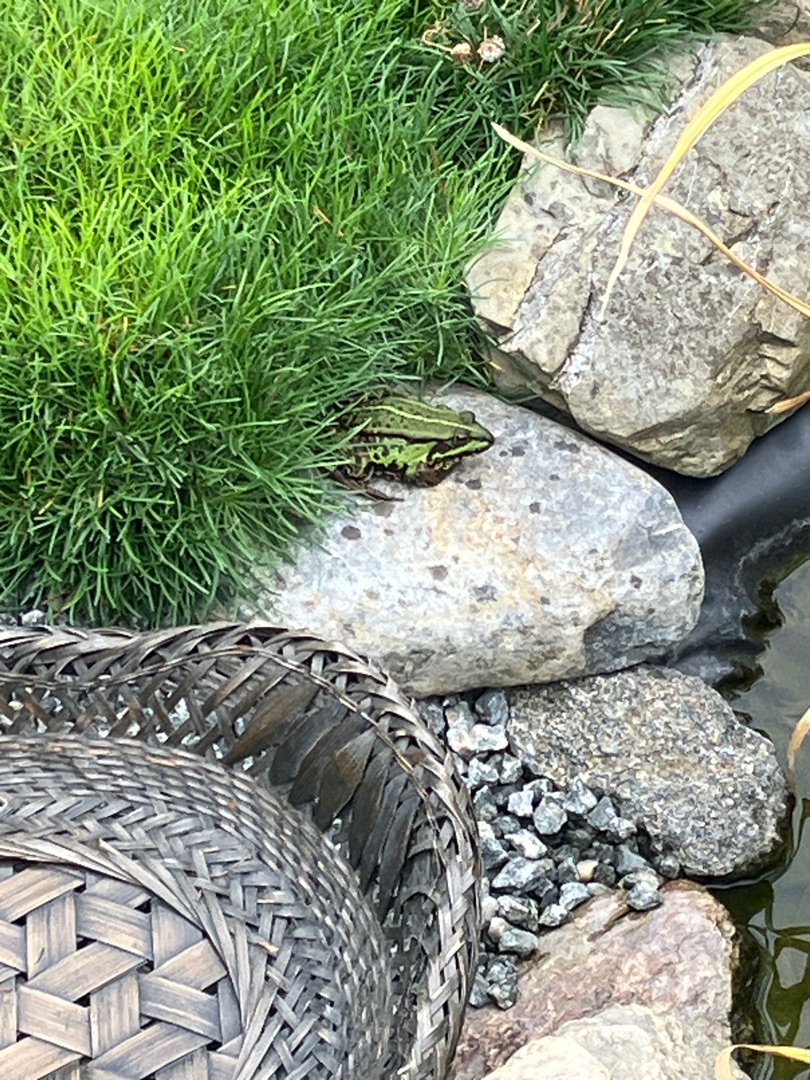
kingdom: Animalia
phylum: Chordata
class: Amphibia
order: Anura
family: Ranidae
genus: Pelophylax
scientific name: Pelophylax lessonae
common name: Grøn frø
